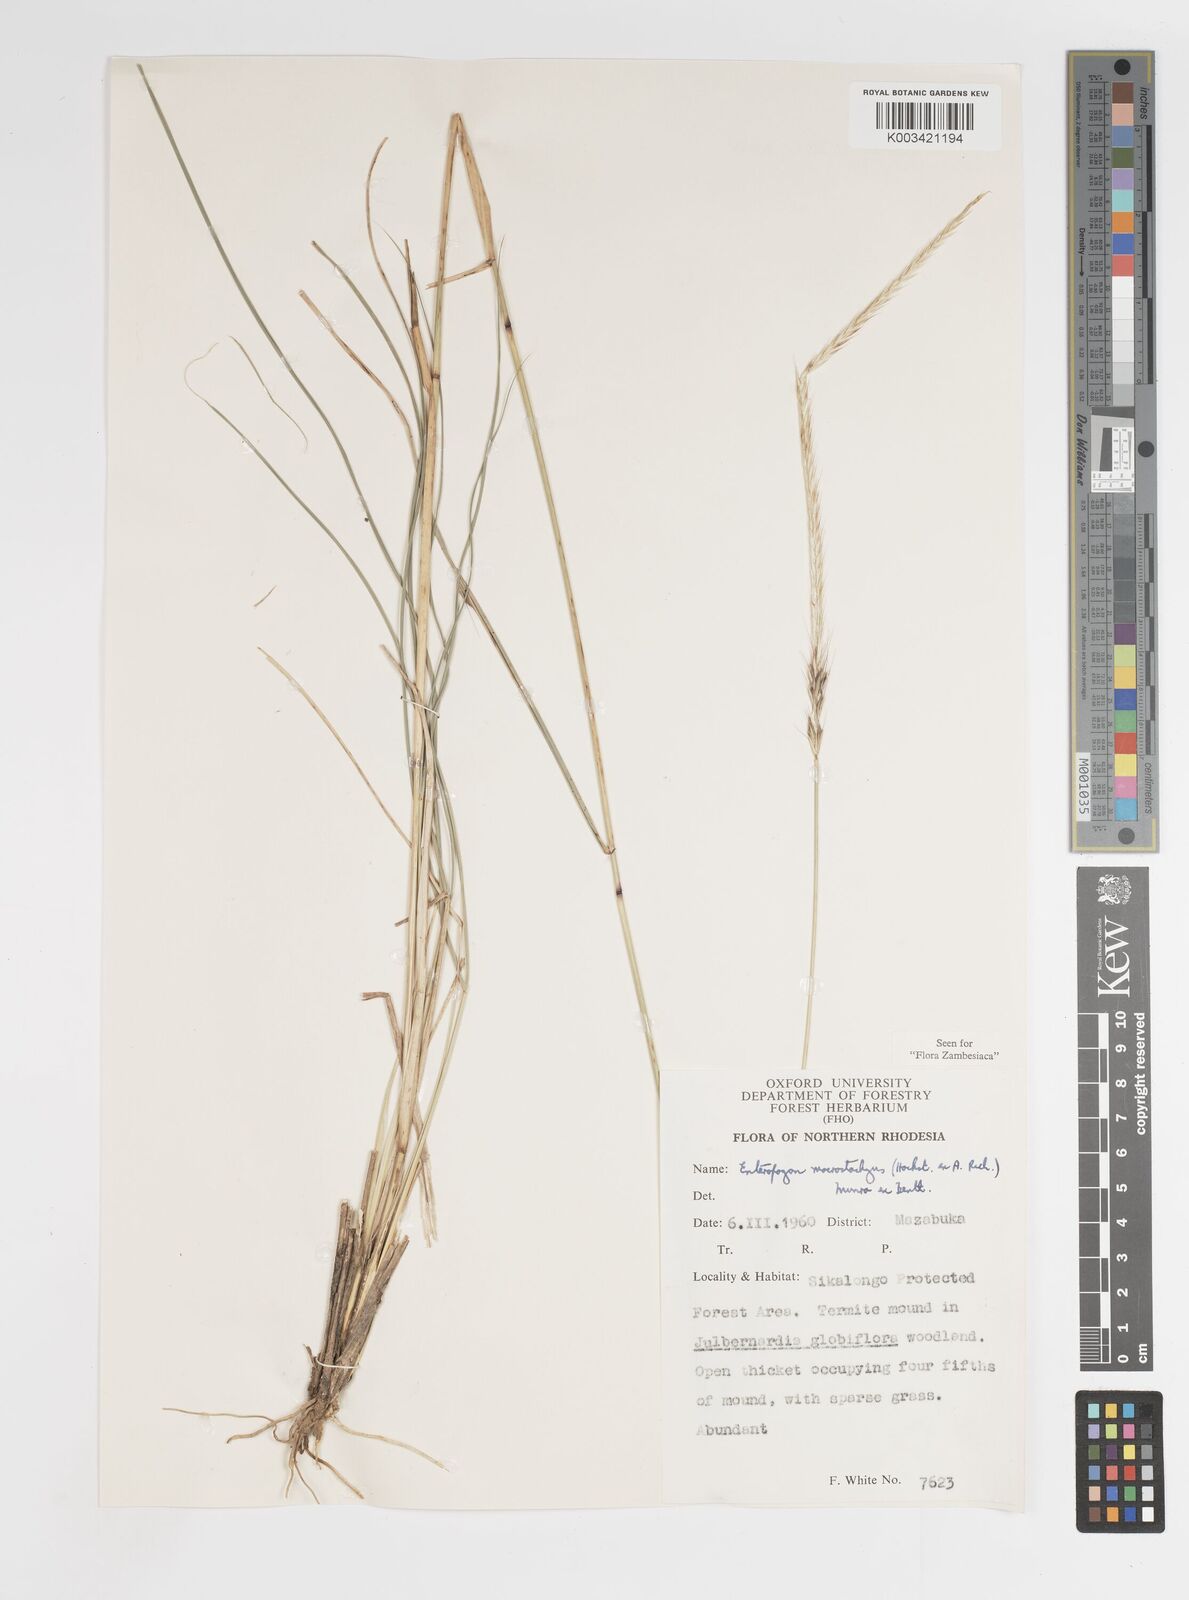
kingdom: Plantae
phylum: Tracheophyta
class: Liliopsida
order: Poales
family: Poaceae
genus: Enteropogon
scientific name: Enteropogon macrostachyus
